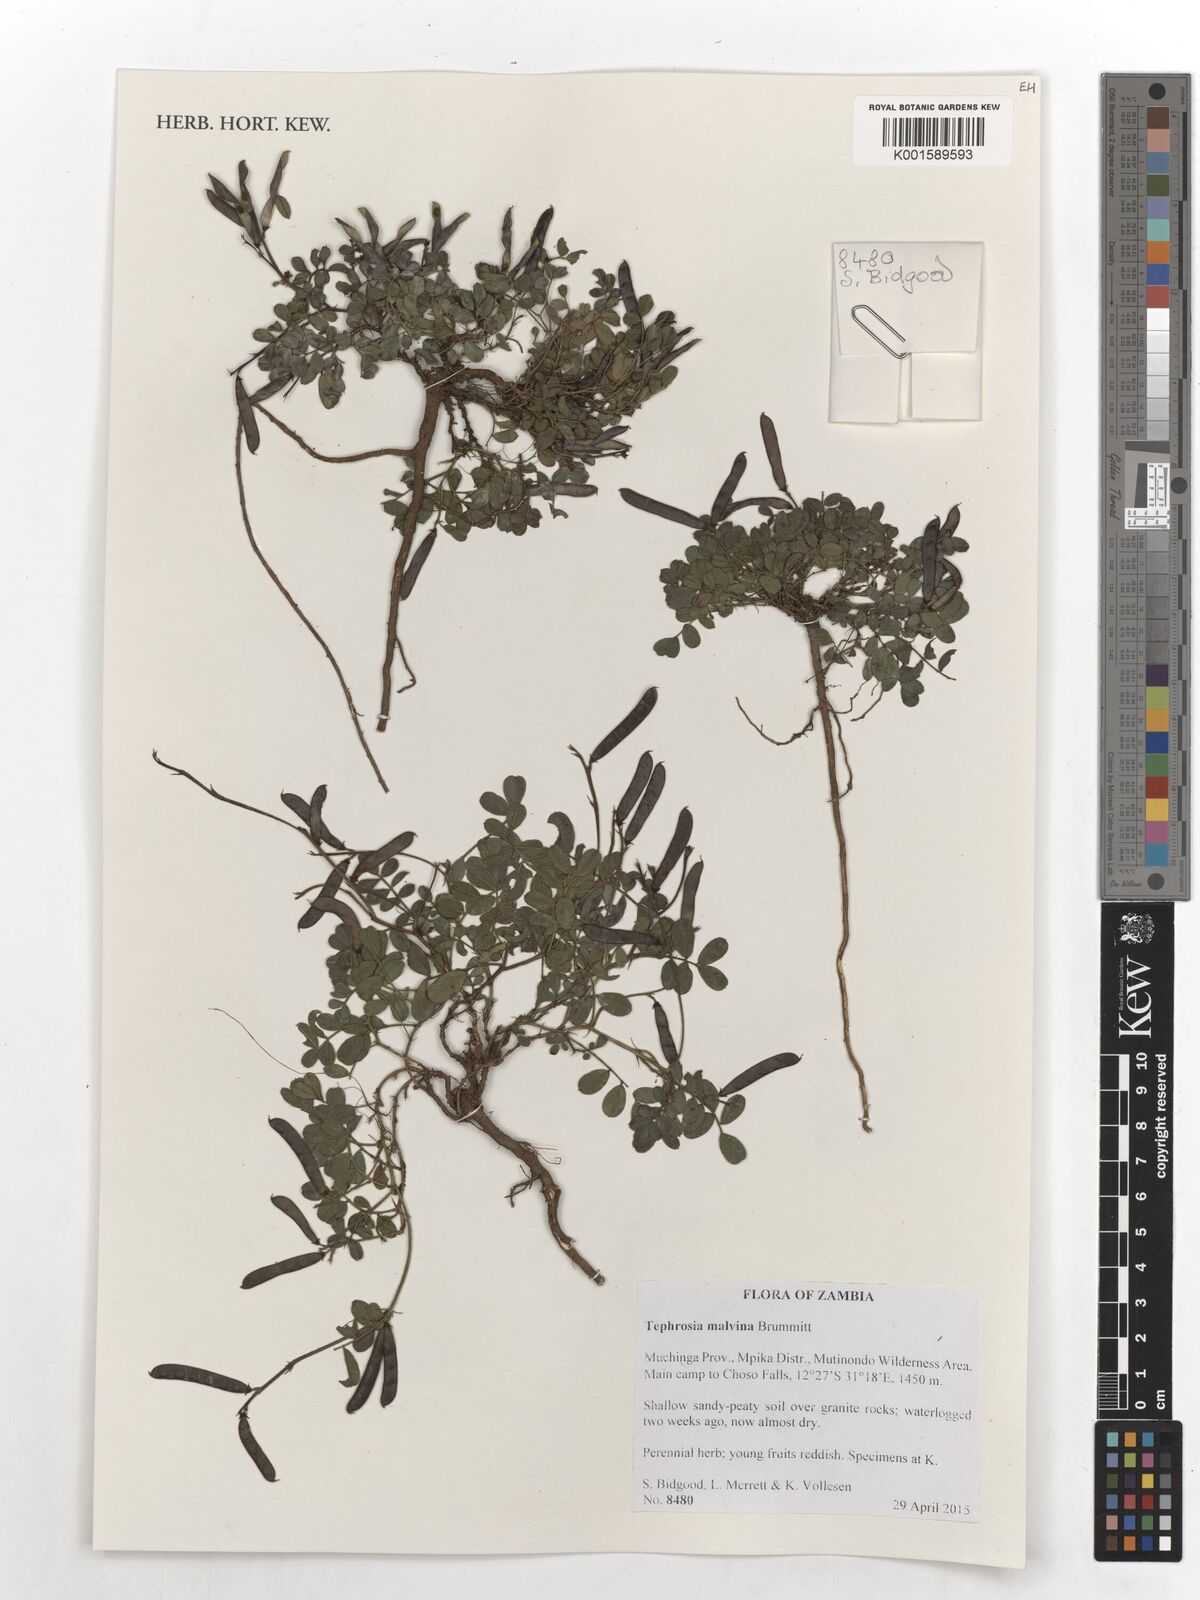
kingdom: Plantae
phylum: Tracheophyta
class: Magnoliopsida
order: Fabales
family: Fabaceae
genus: Tephrosia
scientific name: Tephrosia malvina
